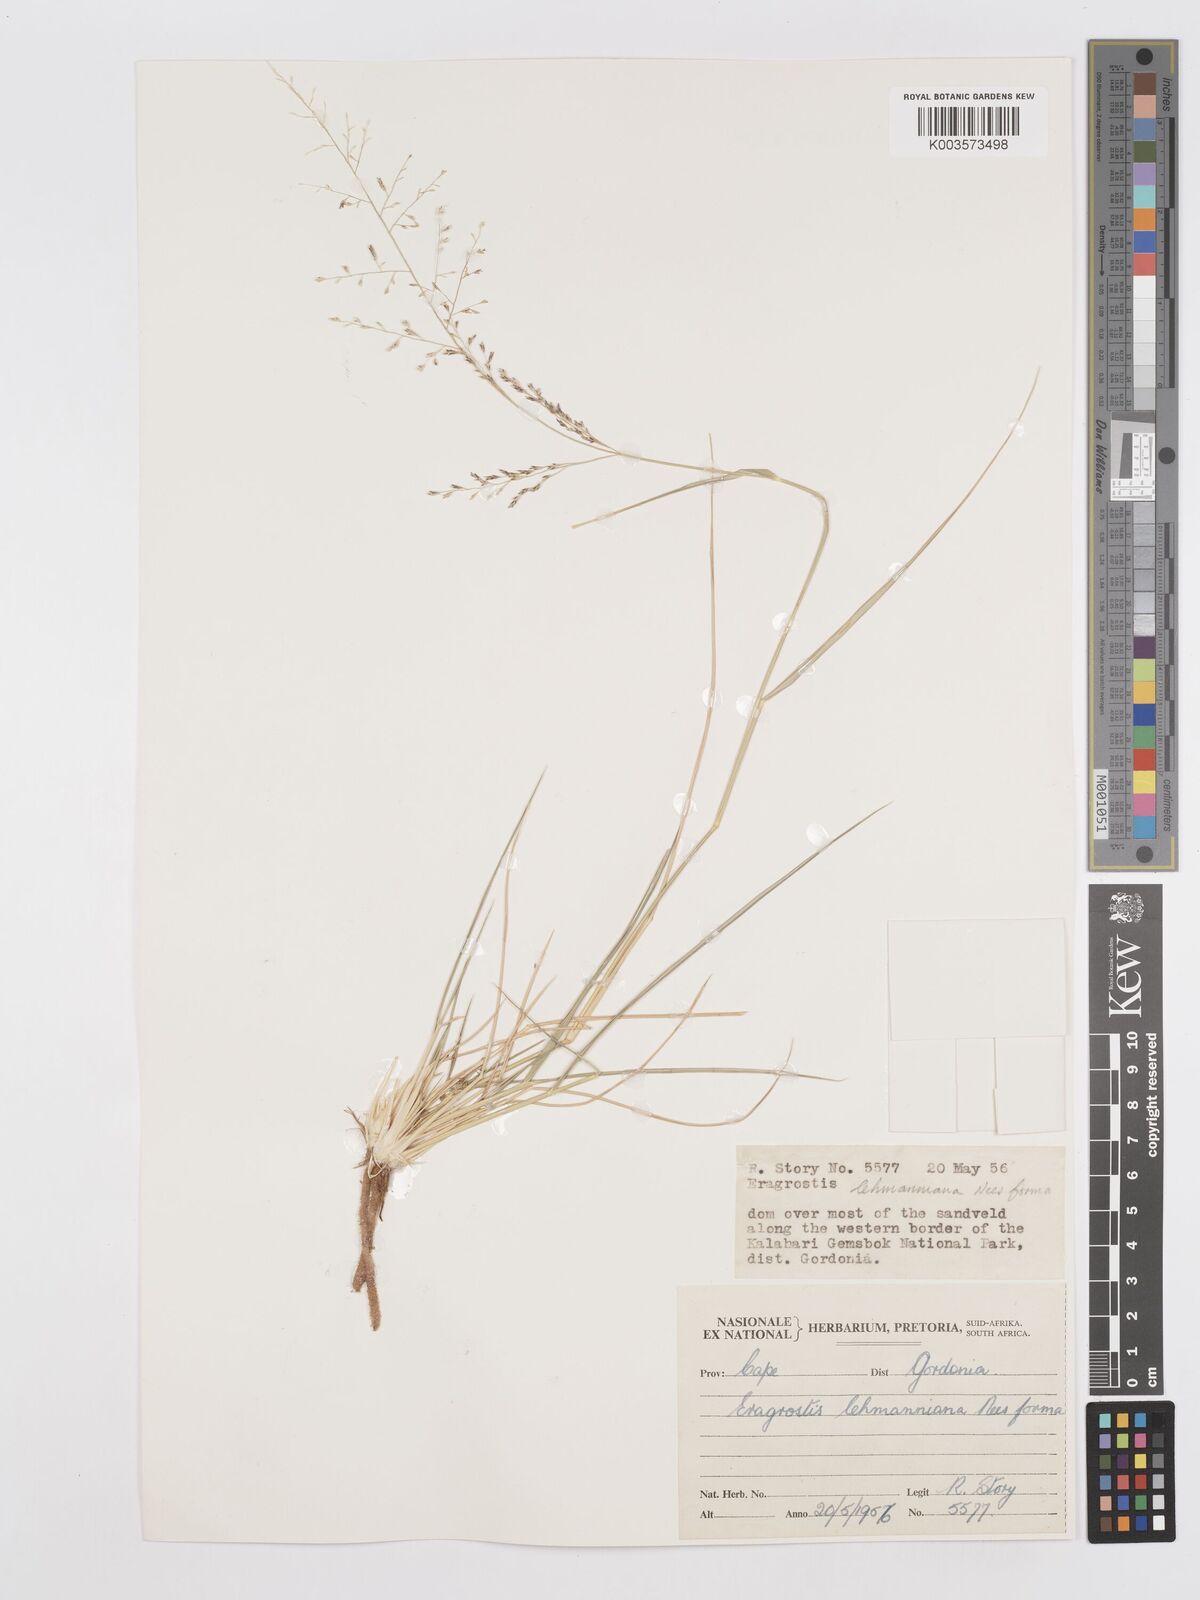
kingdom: Plantae
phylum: Tracheophyta
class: Liliopsida
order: Poales
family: Poaceae
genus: Eragrostis
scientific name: Eragrostis lehmanniana
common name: Lehmann lovegrass
